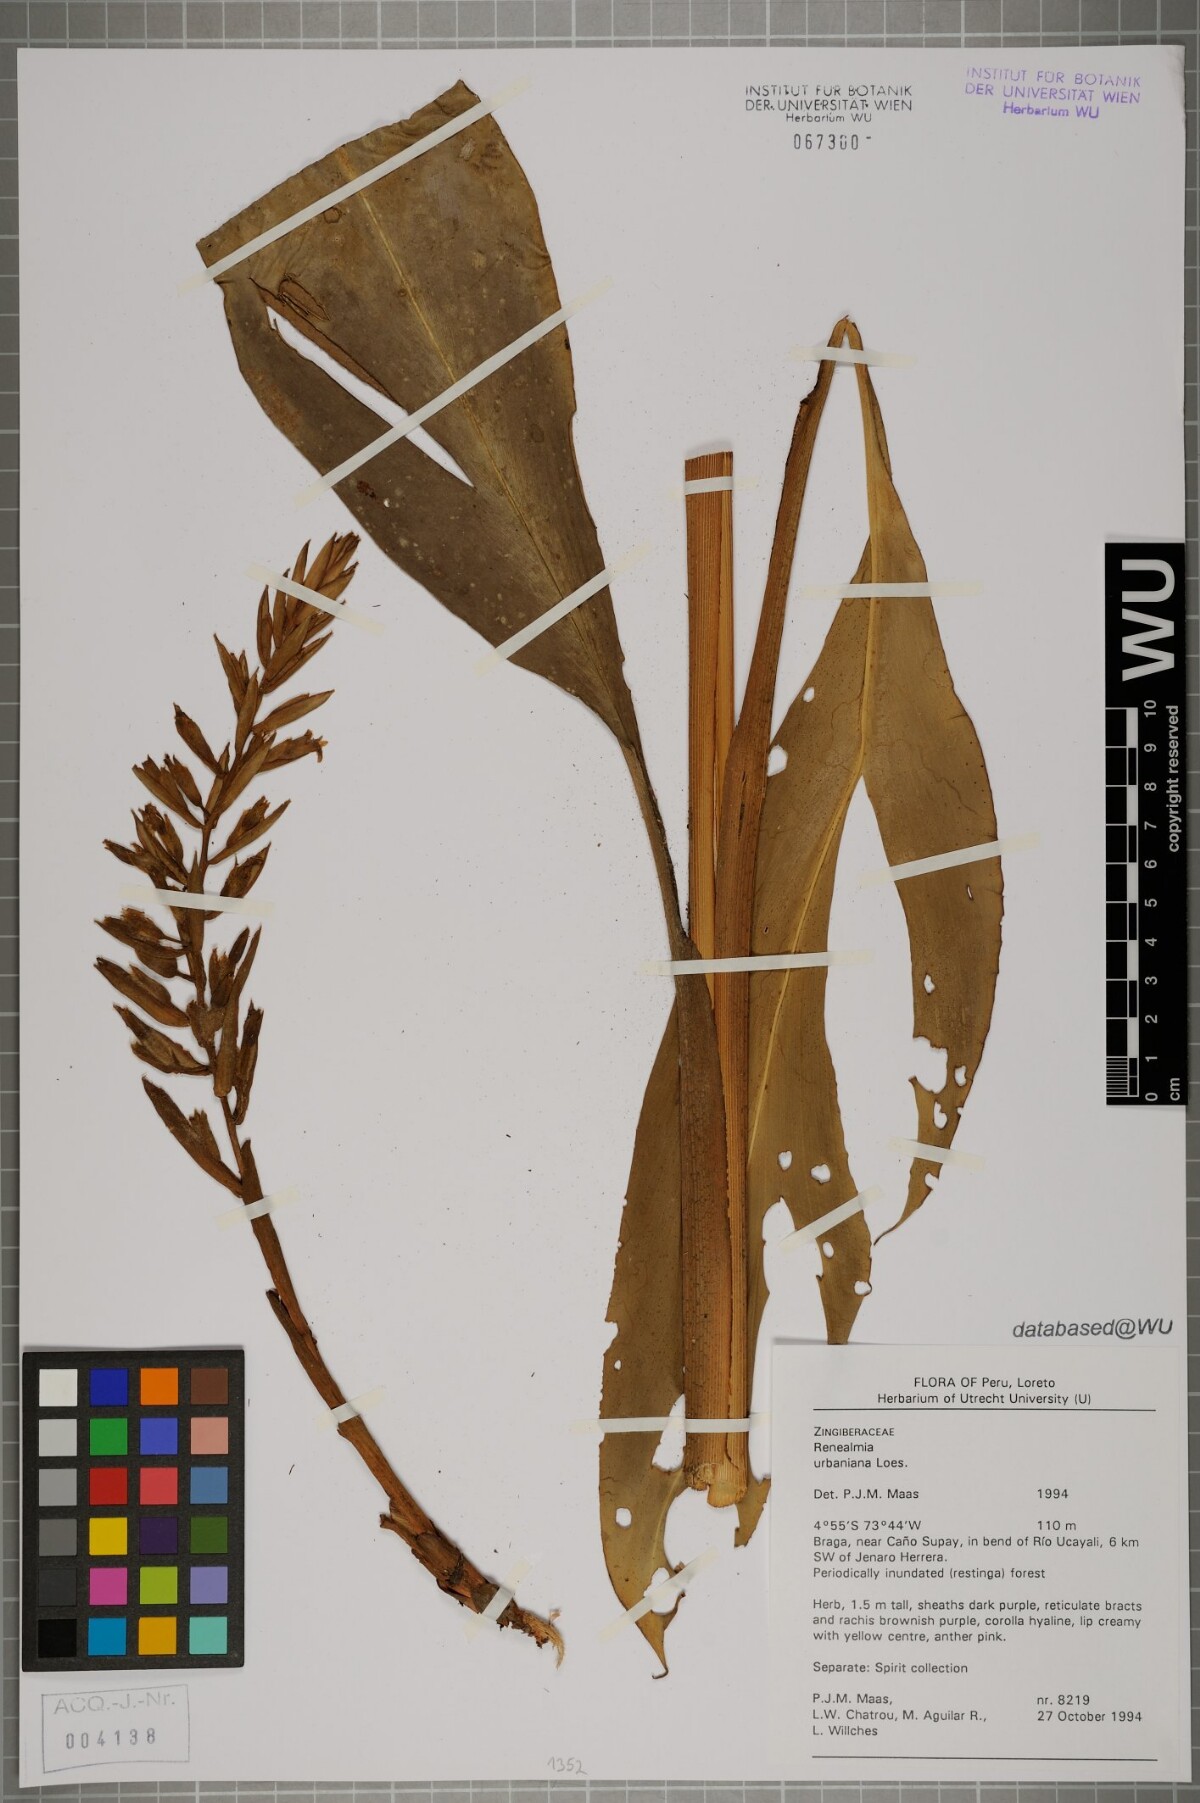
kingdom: Plantae
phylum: Tracheophyta
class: Liliopsida
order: Zingiberales
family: Zingiberaceae
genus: Renealmia
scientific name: Renealmia urbaniana
